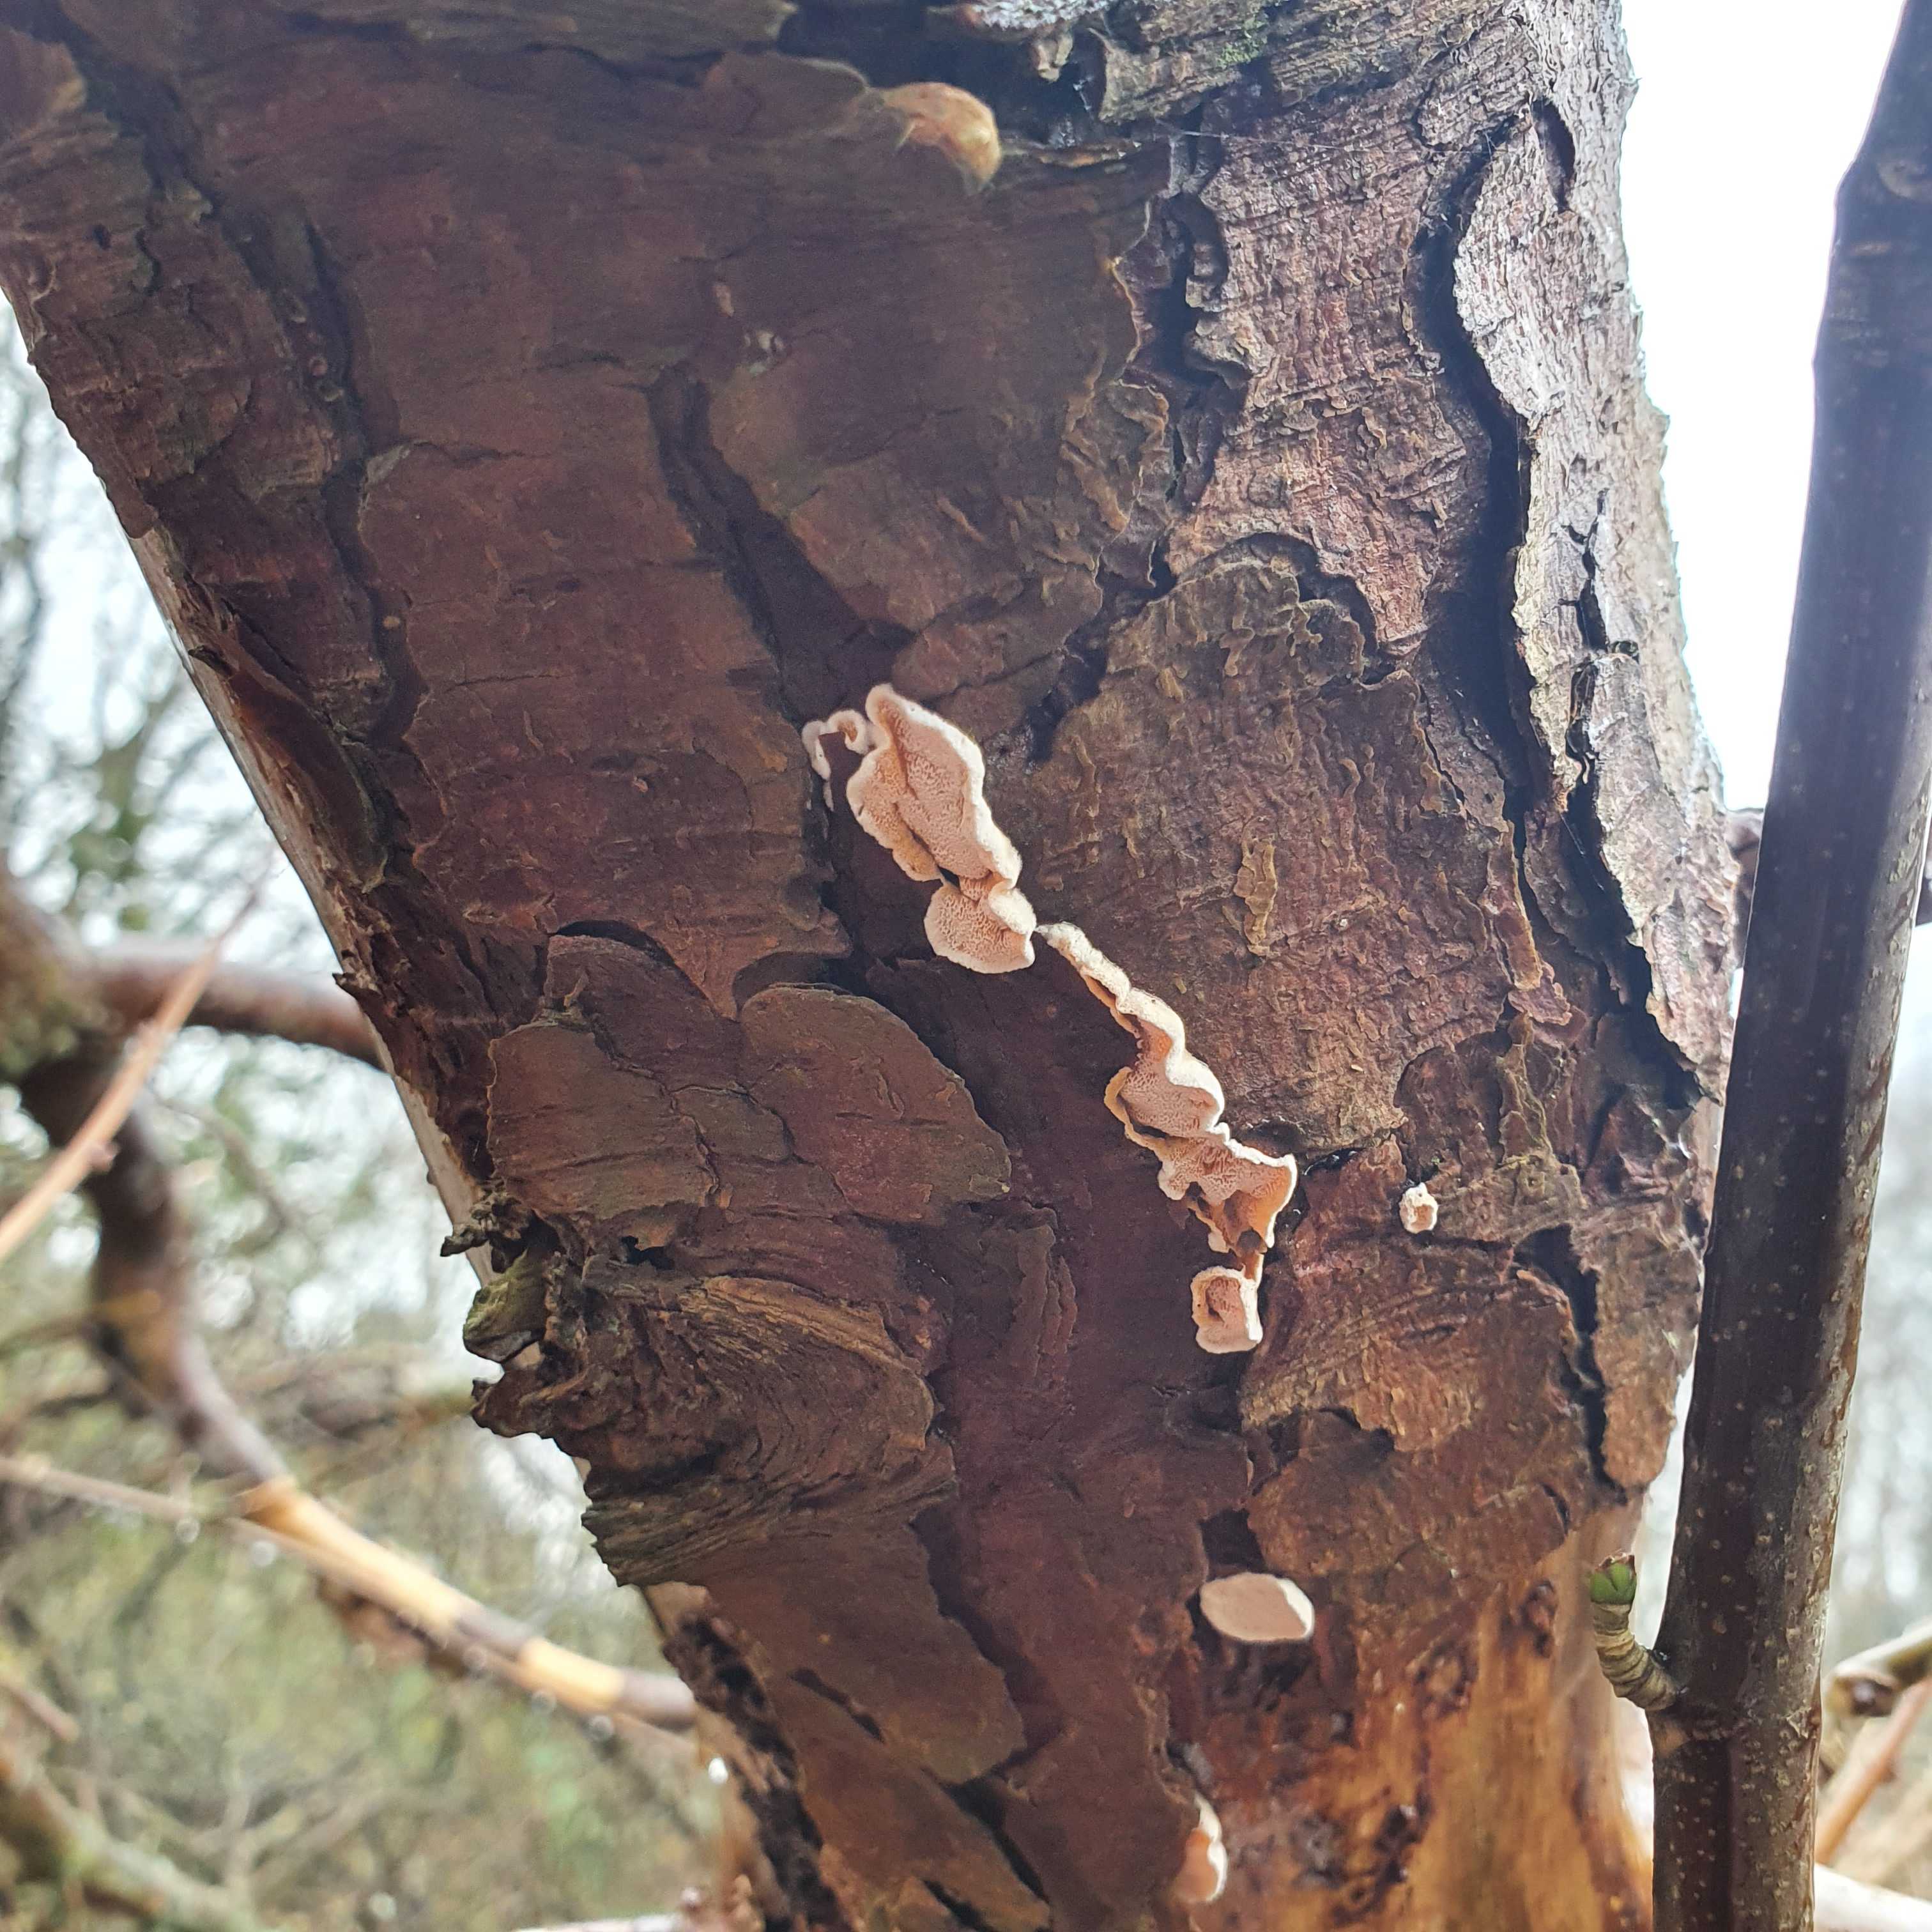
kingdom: Fungi
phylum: Basidiomycota
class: Agaricomycetes
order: Polyporales
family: Incrustoporiaceae
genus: Skeletocutis
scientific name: Skeletocutis amorpha
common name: orange krystalporesvamp
